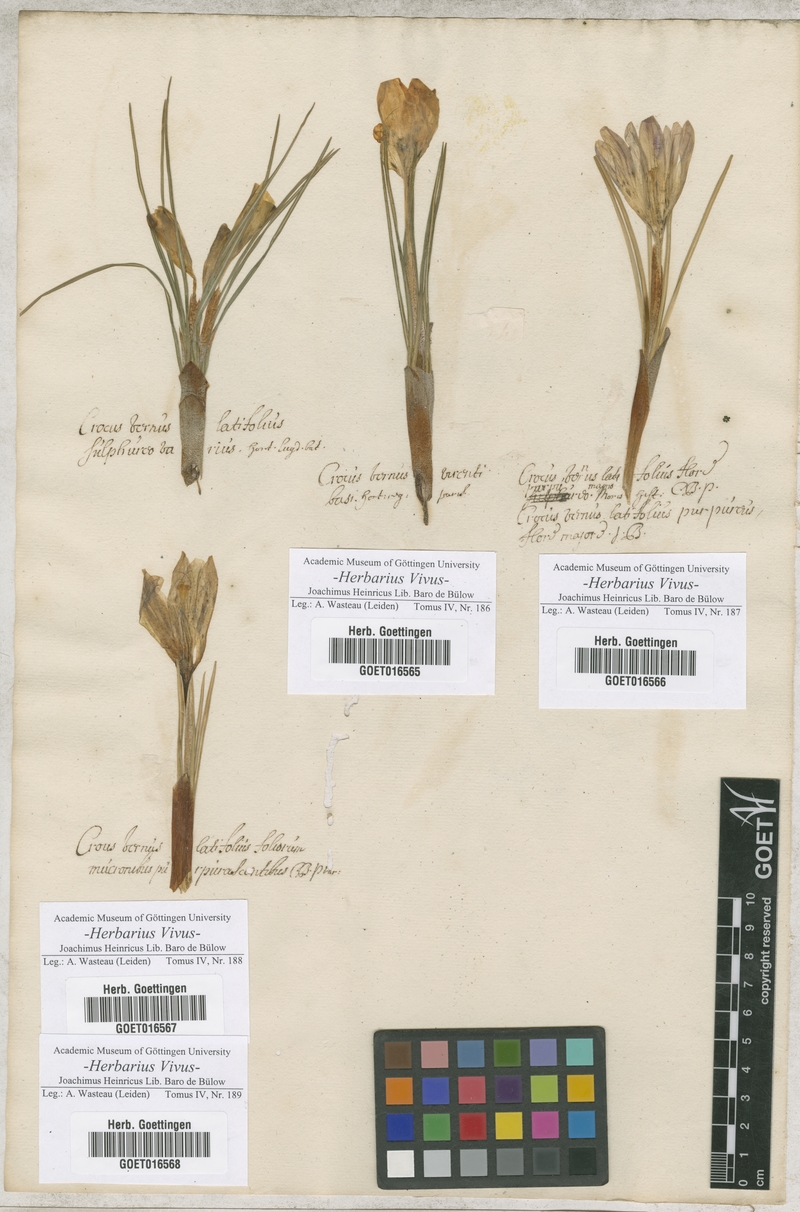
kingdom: Plantae
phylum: Tracheophyta
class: Liliopsida
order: Asparagales
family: Iridaceae
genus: Crocus
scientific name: Crocus
